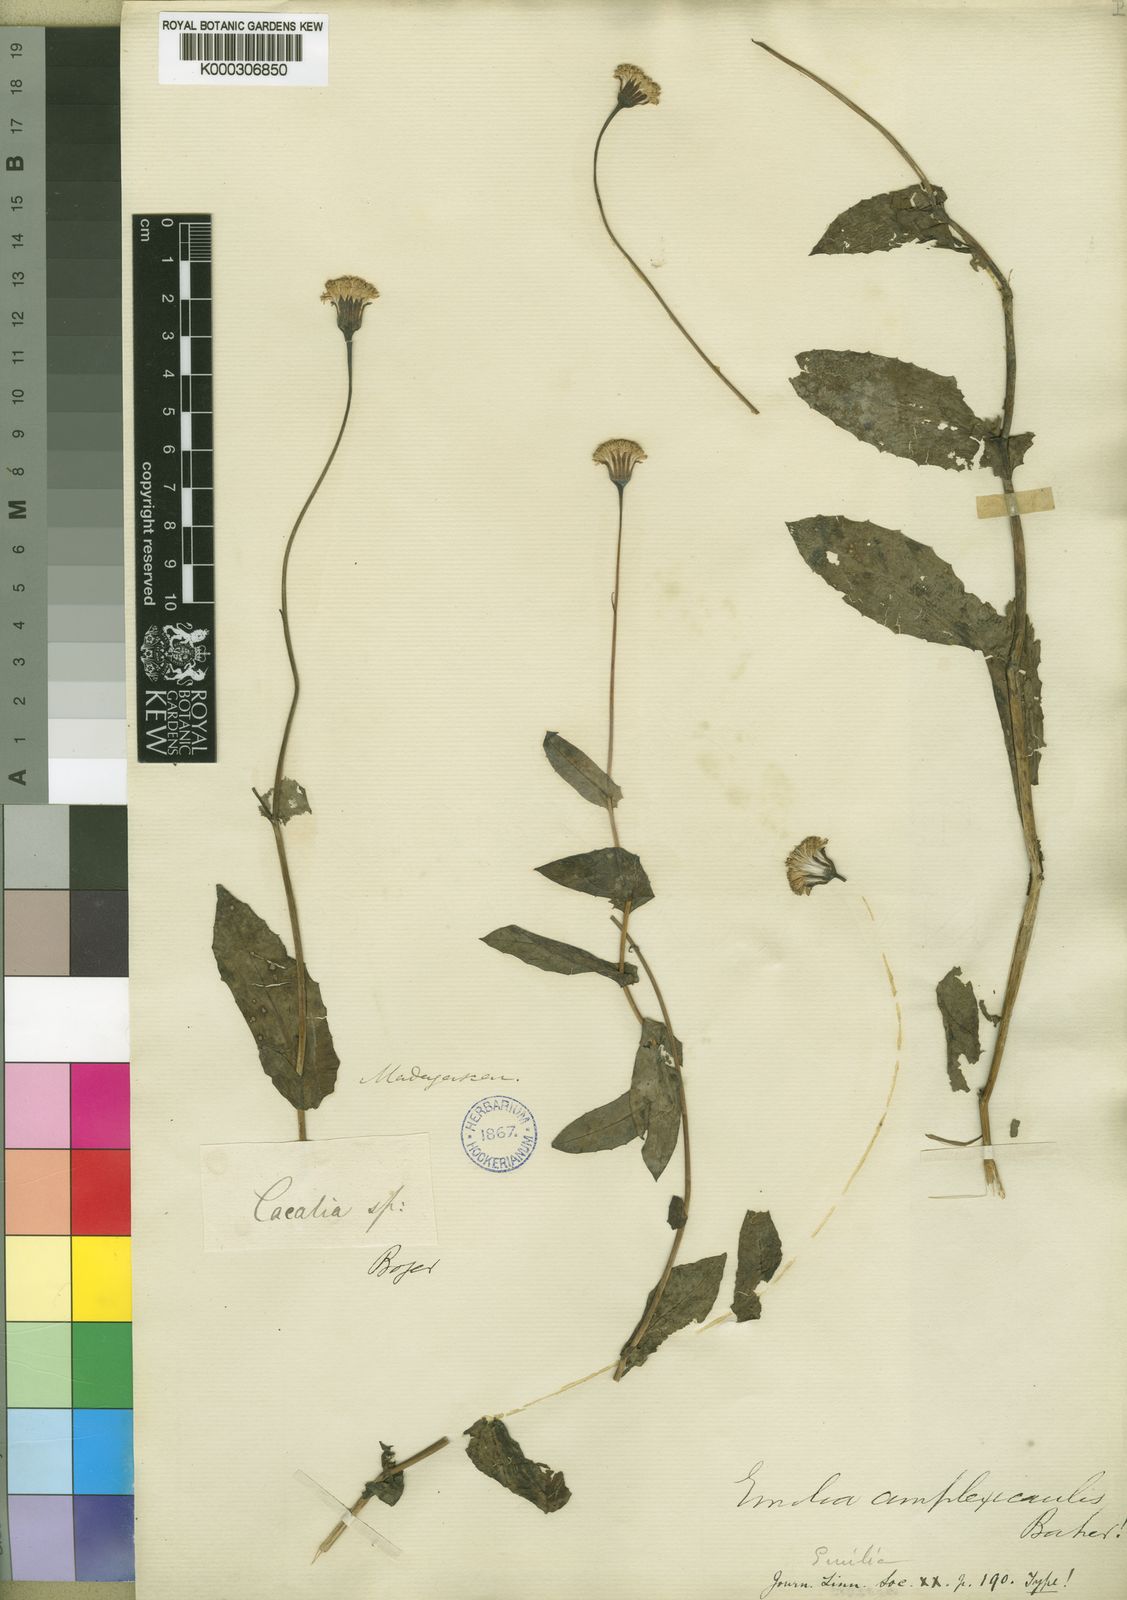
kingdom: Plantae
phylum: Tracheophyta
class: Magnoliopsida
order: Asterales
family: Asteraceae
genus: Emilia
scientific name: Emilia humifusa
